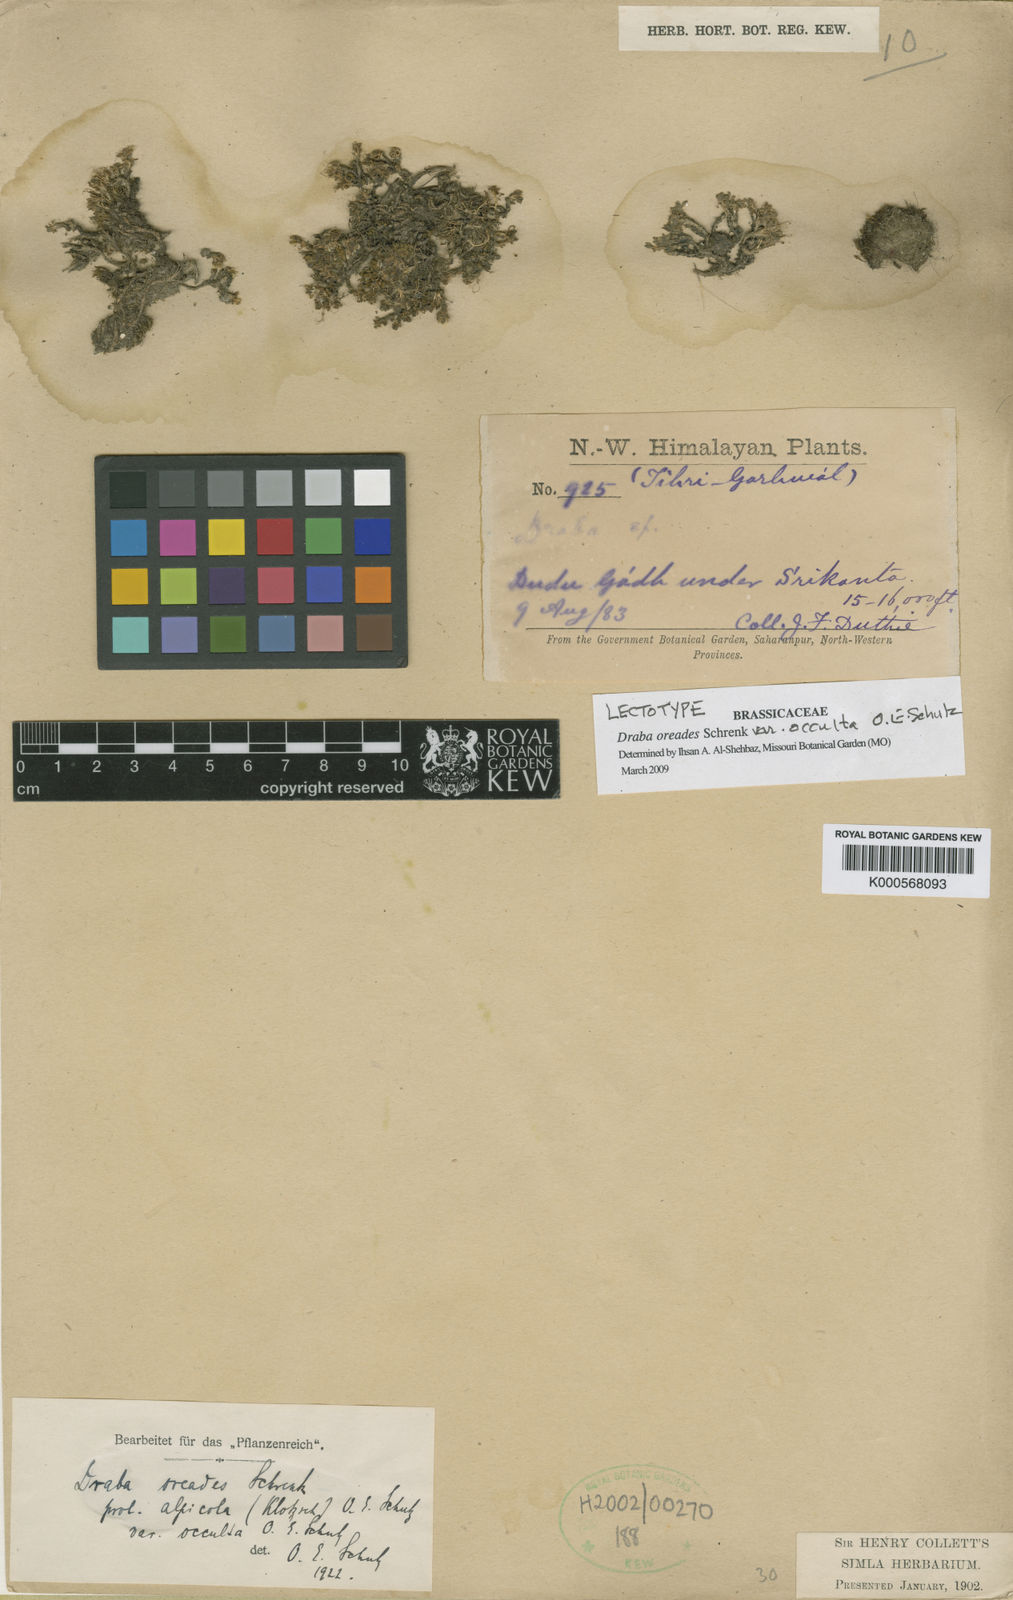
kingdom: Plantae
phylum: Tracheophyta
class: Magnoliopsida
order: Brassicales
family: Brassicaceae
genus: Draba
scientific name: Draba oreades
